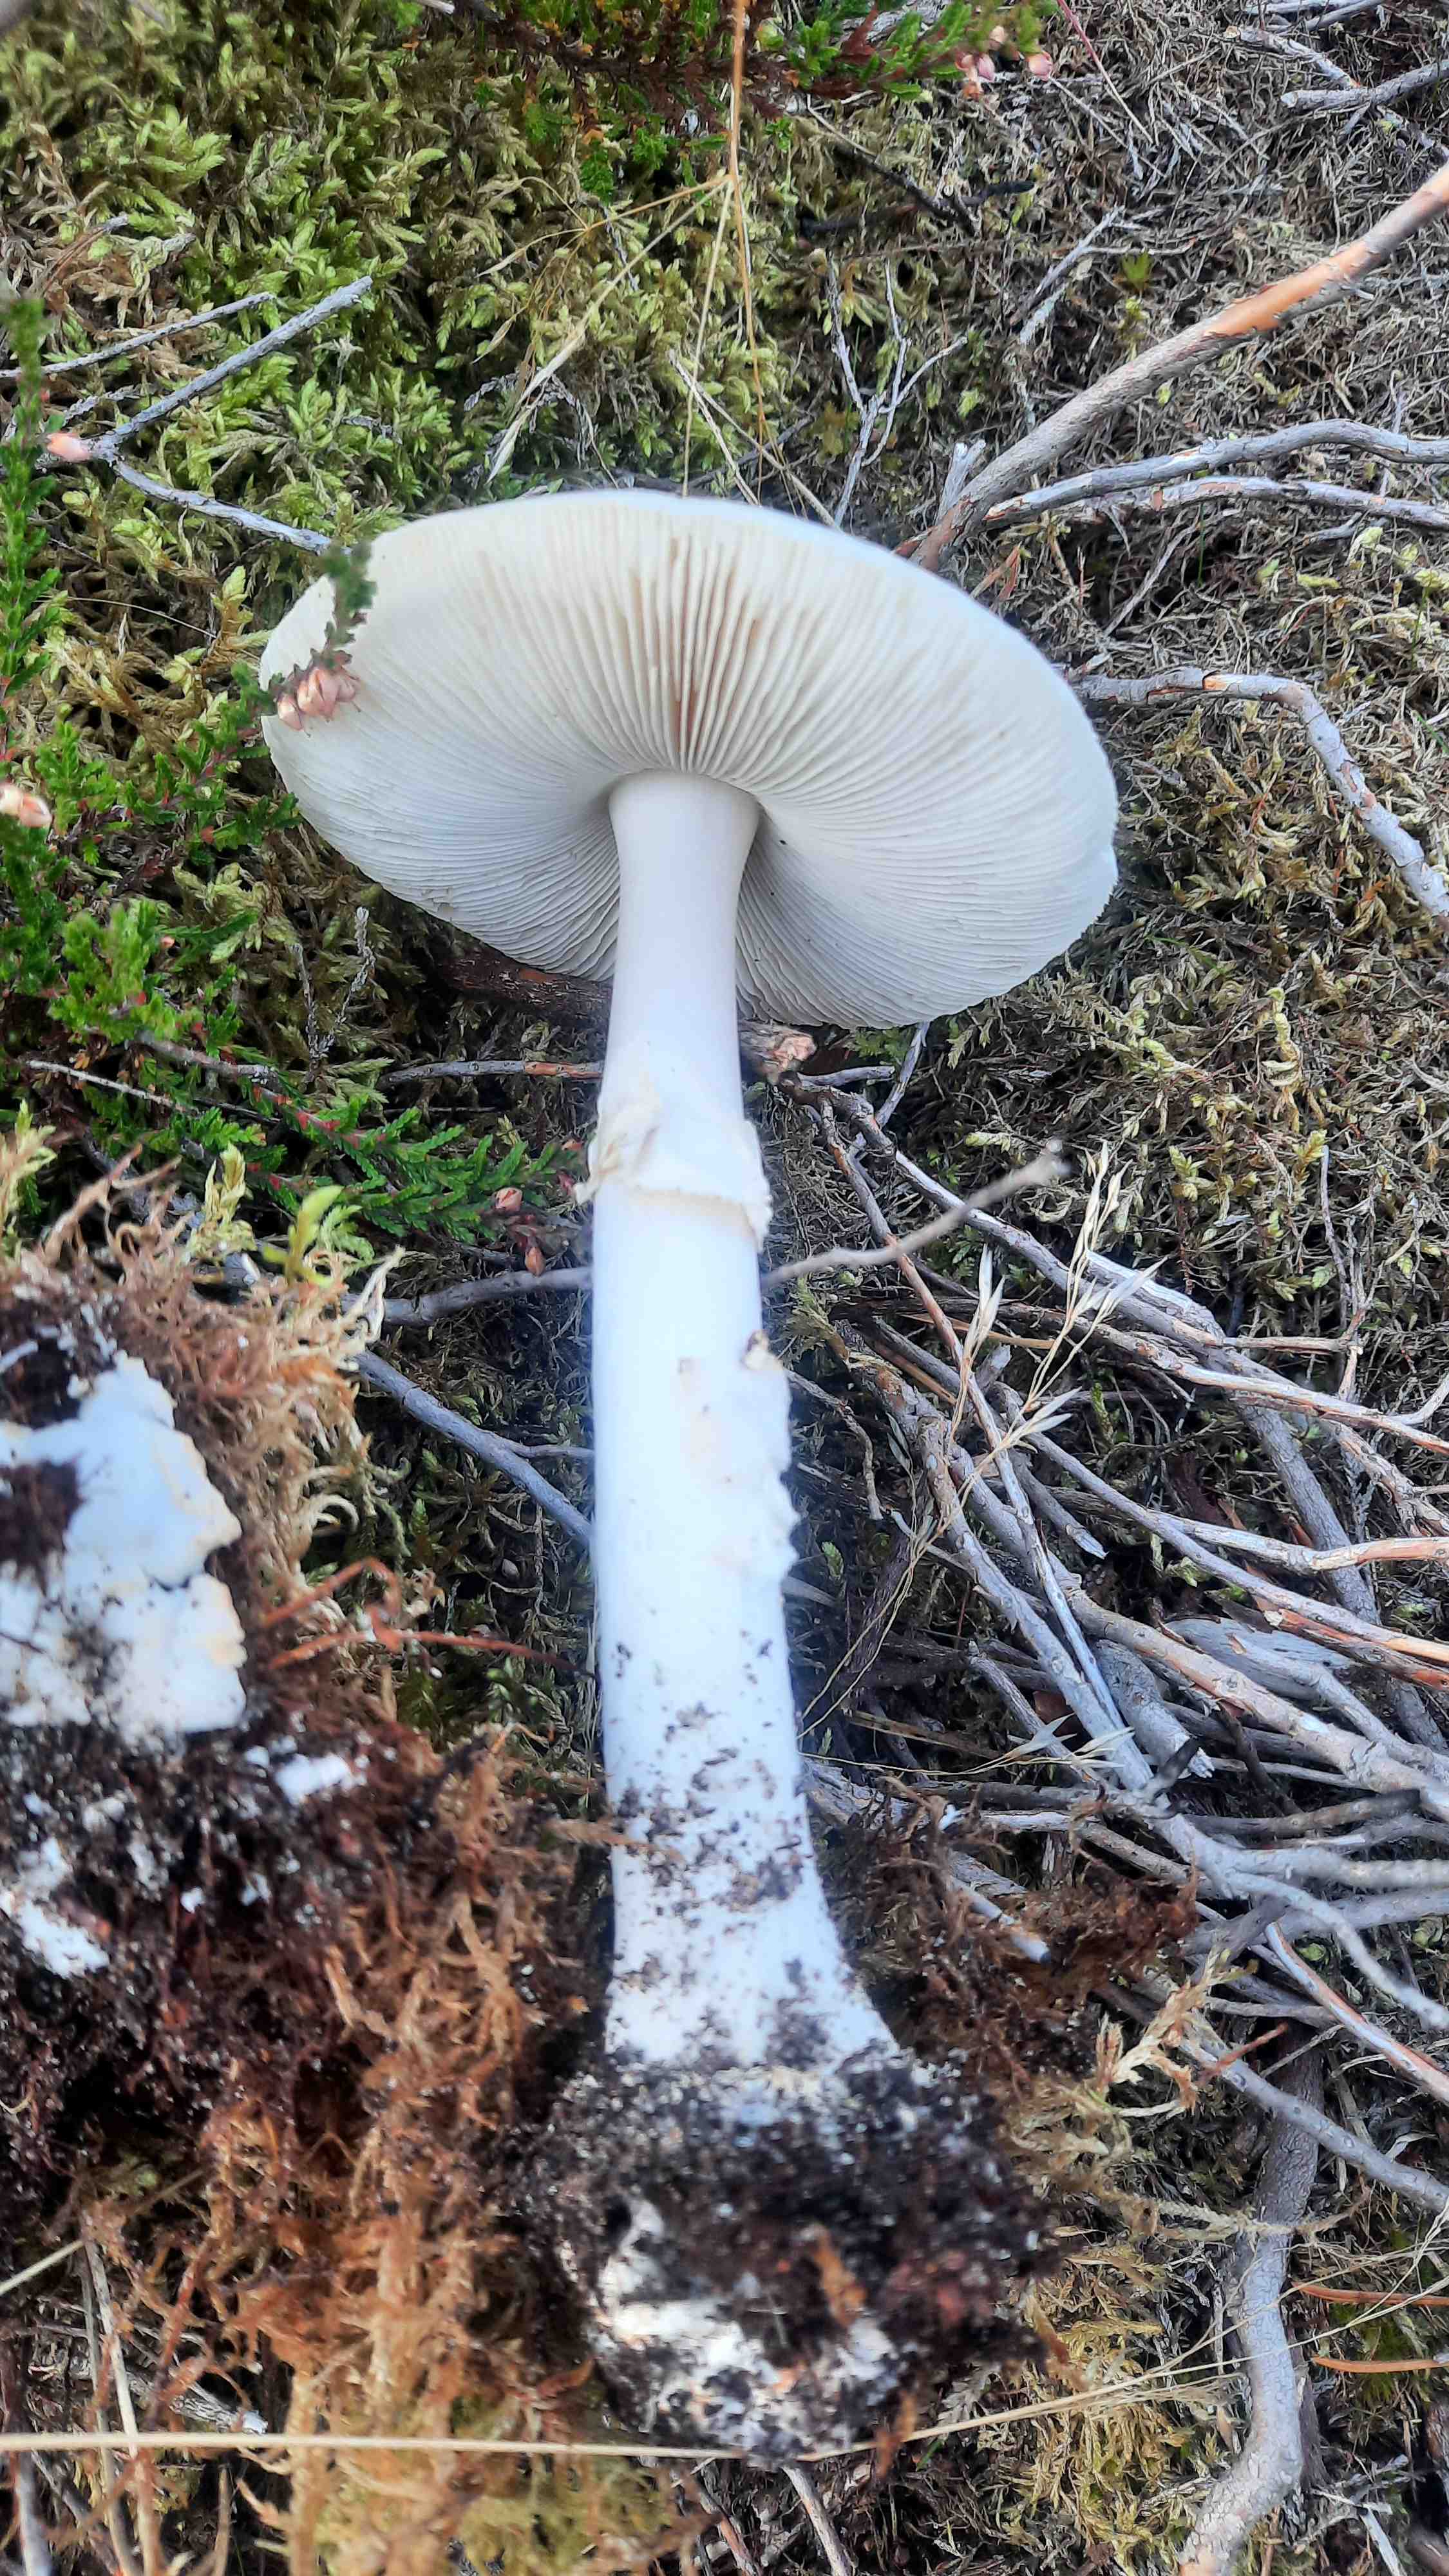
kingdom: Fungi
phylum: Basidiomycota
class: Agaricomycetes
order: Agaricales
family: Amanitaceae
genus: Amanita
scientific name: Amanita virosa
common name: snehvid fluesvamp
